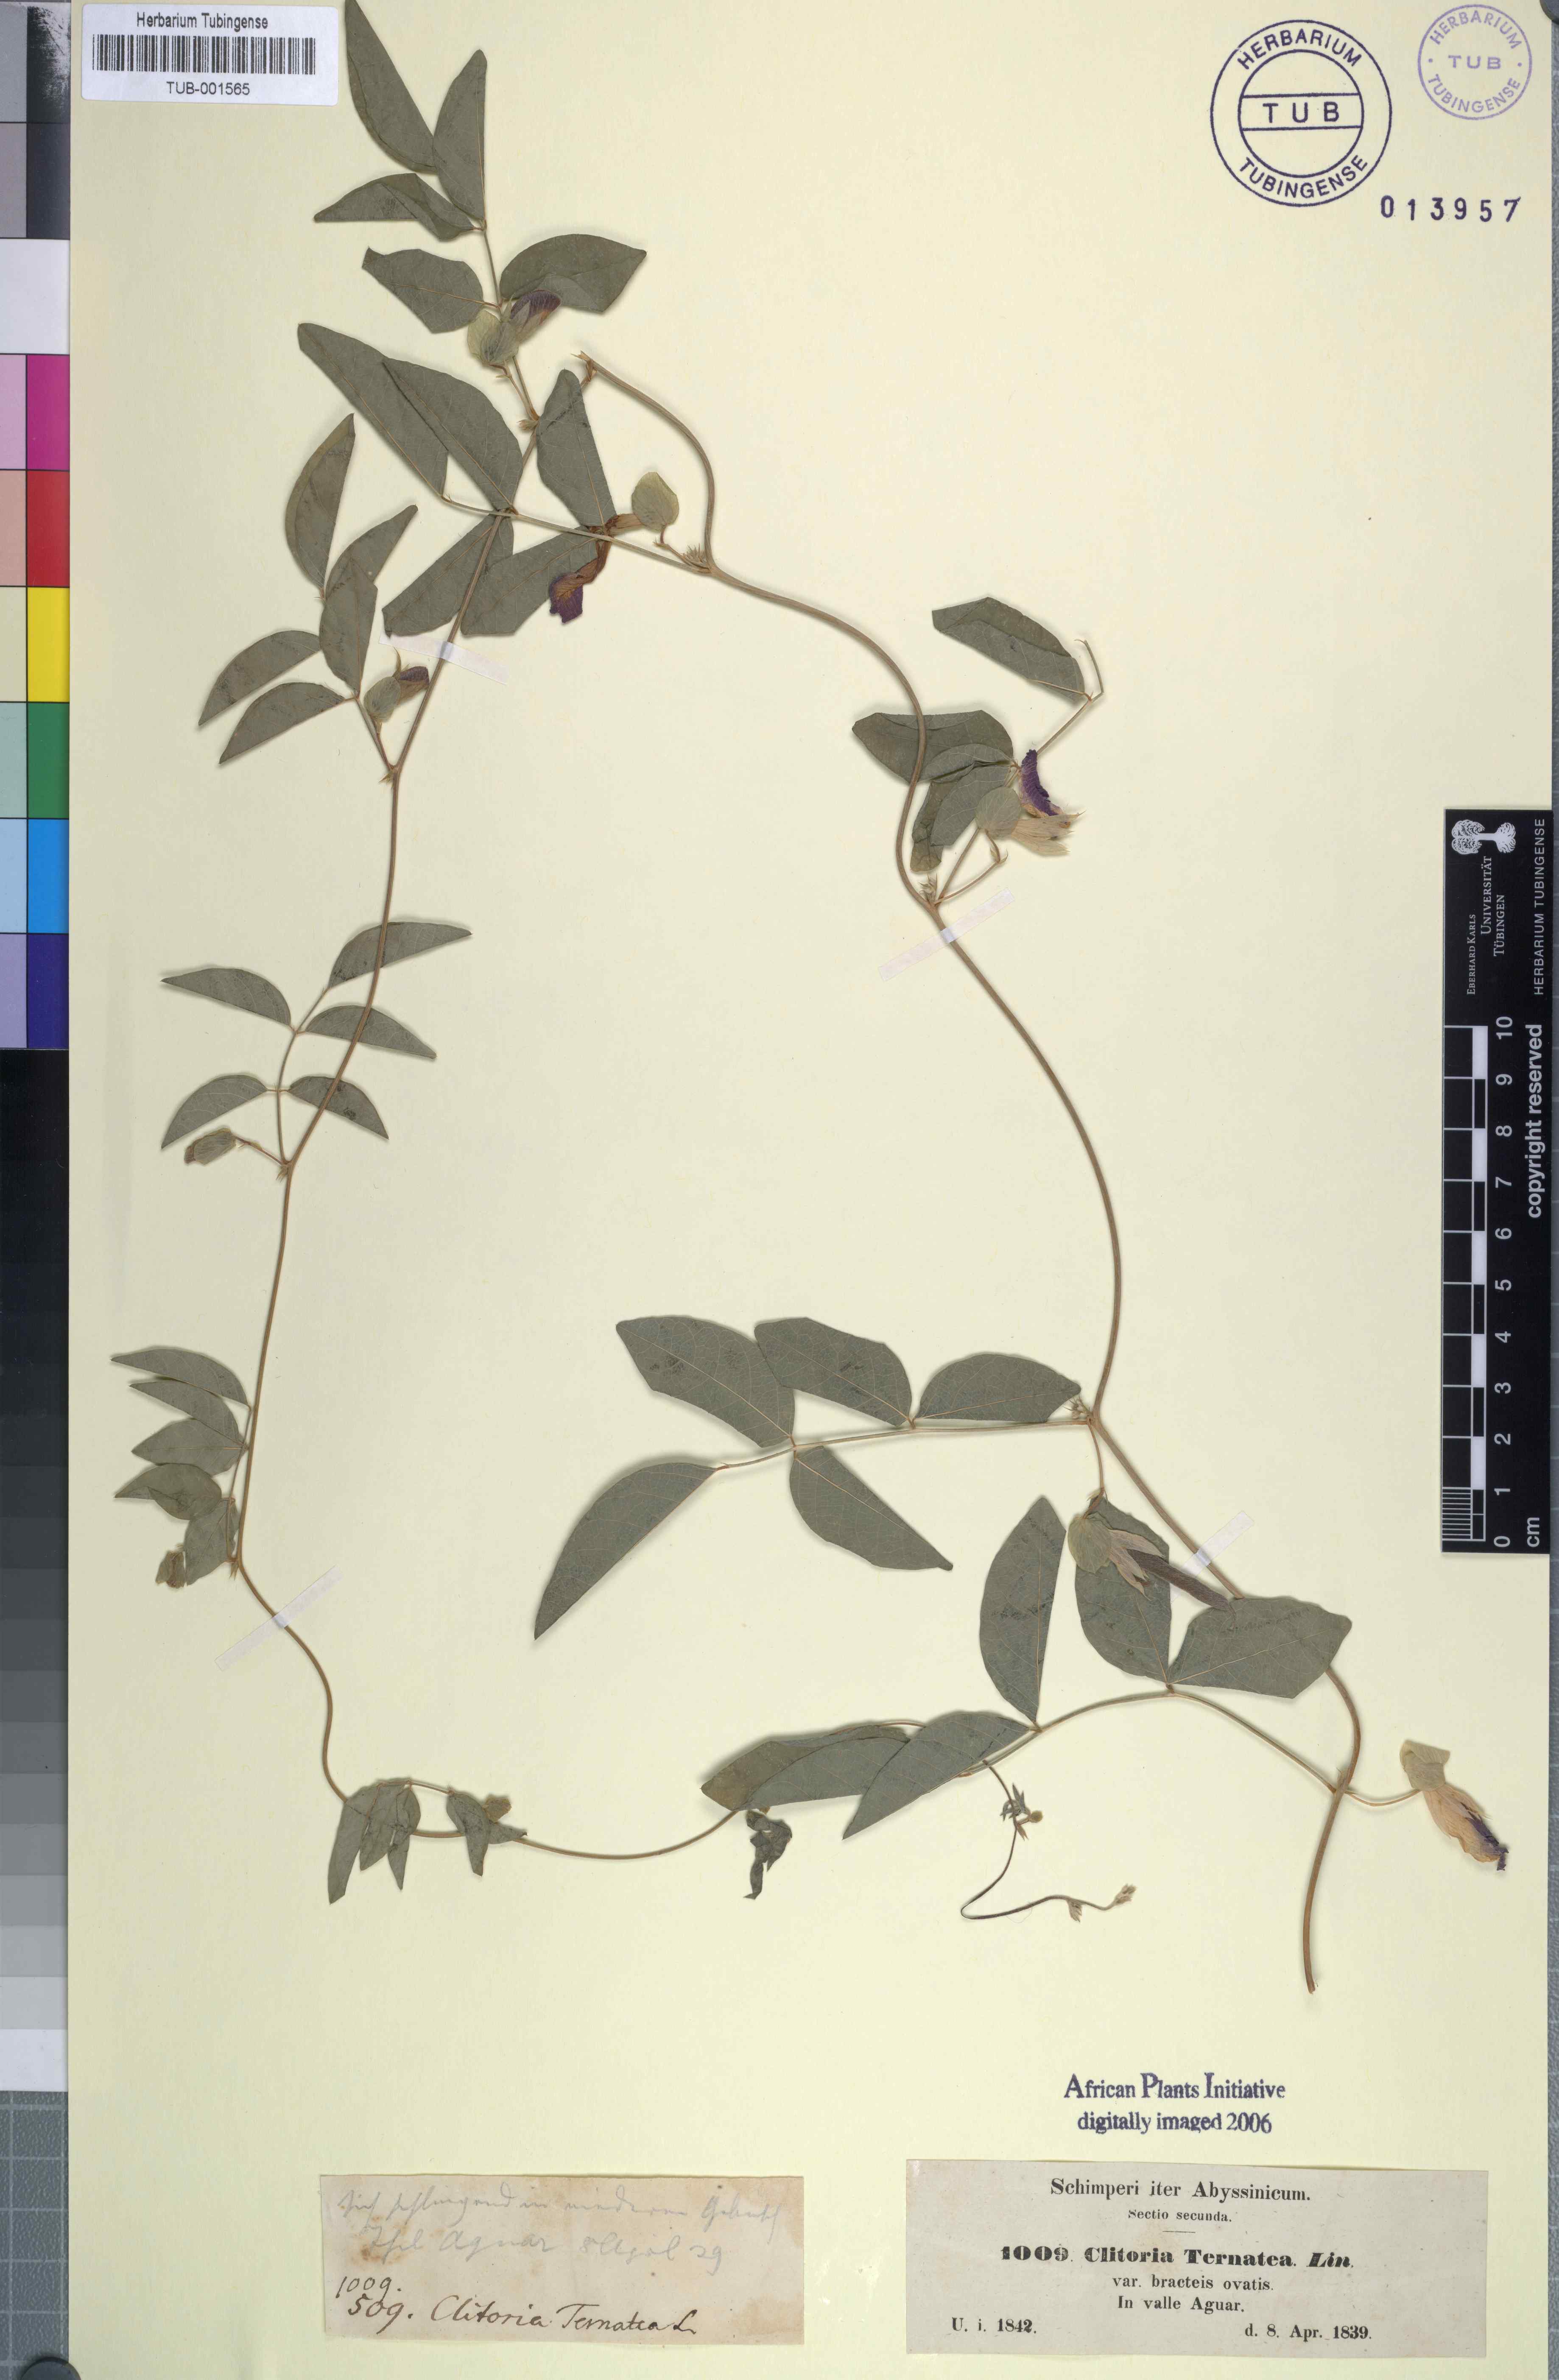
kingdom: Plantae
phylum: Tracheophyta
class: Magnoliopsida
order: Fabales
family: Fabaceae
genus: Clitoria
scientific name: Clitoria ternatea
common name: Asian pigeonwings
